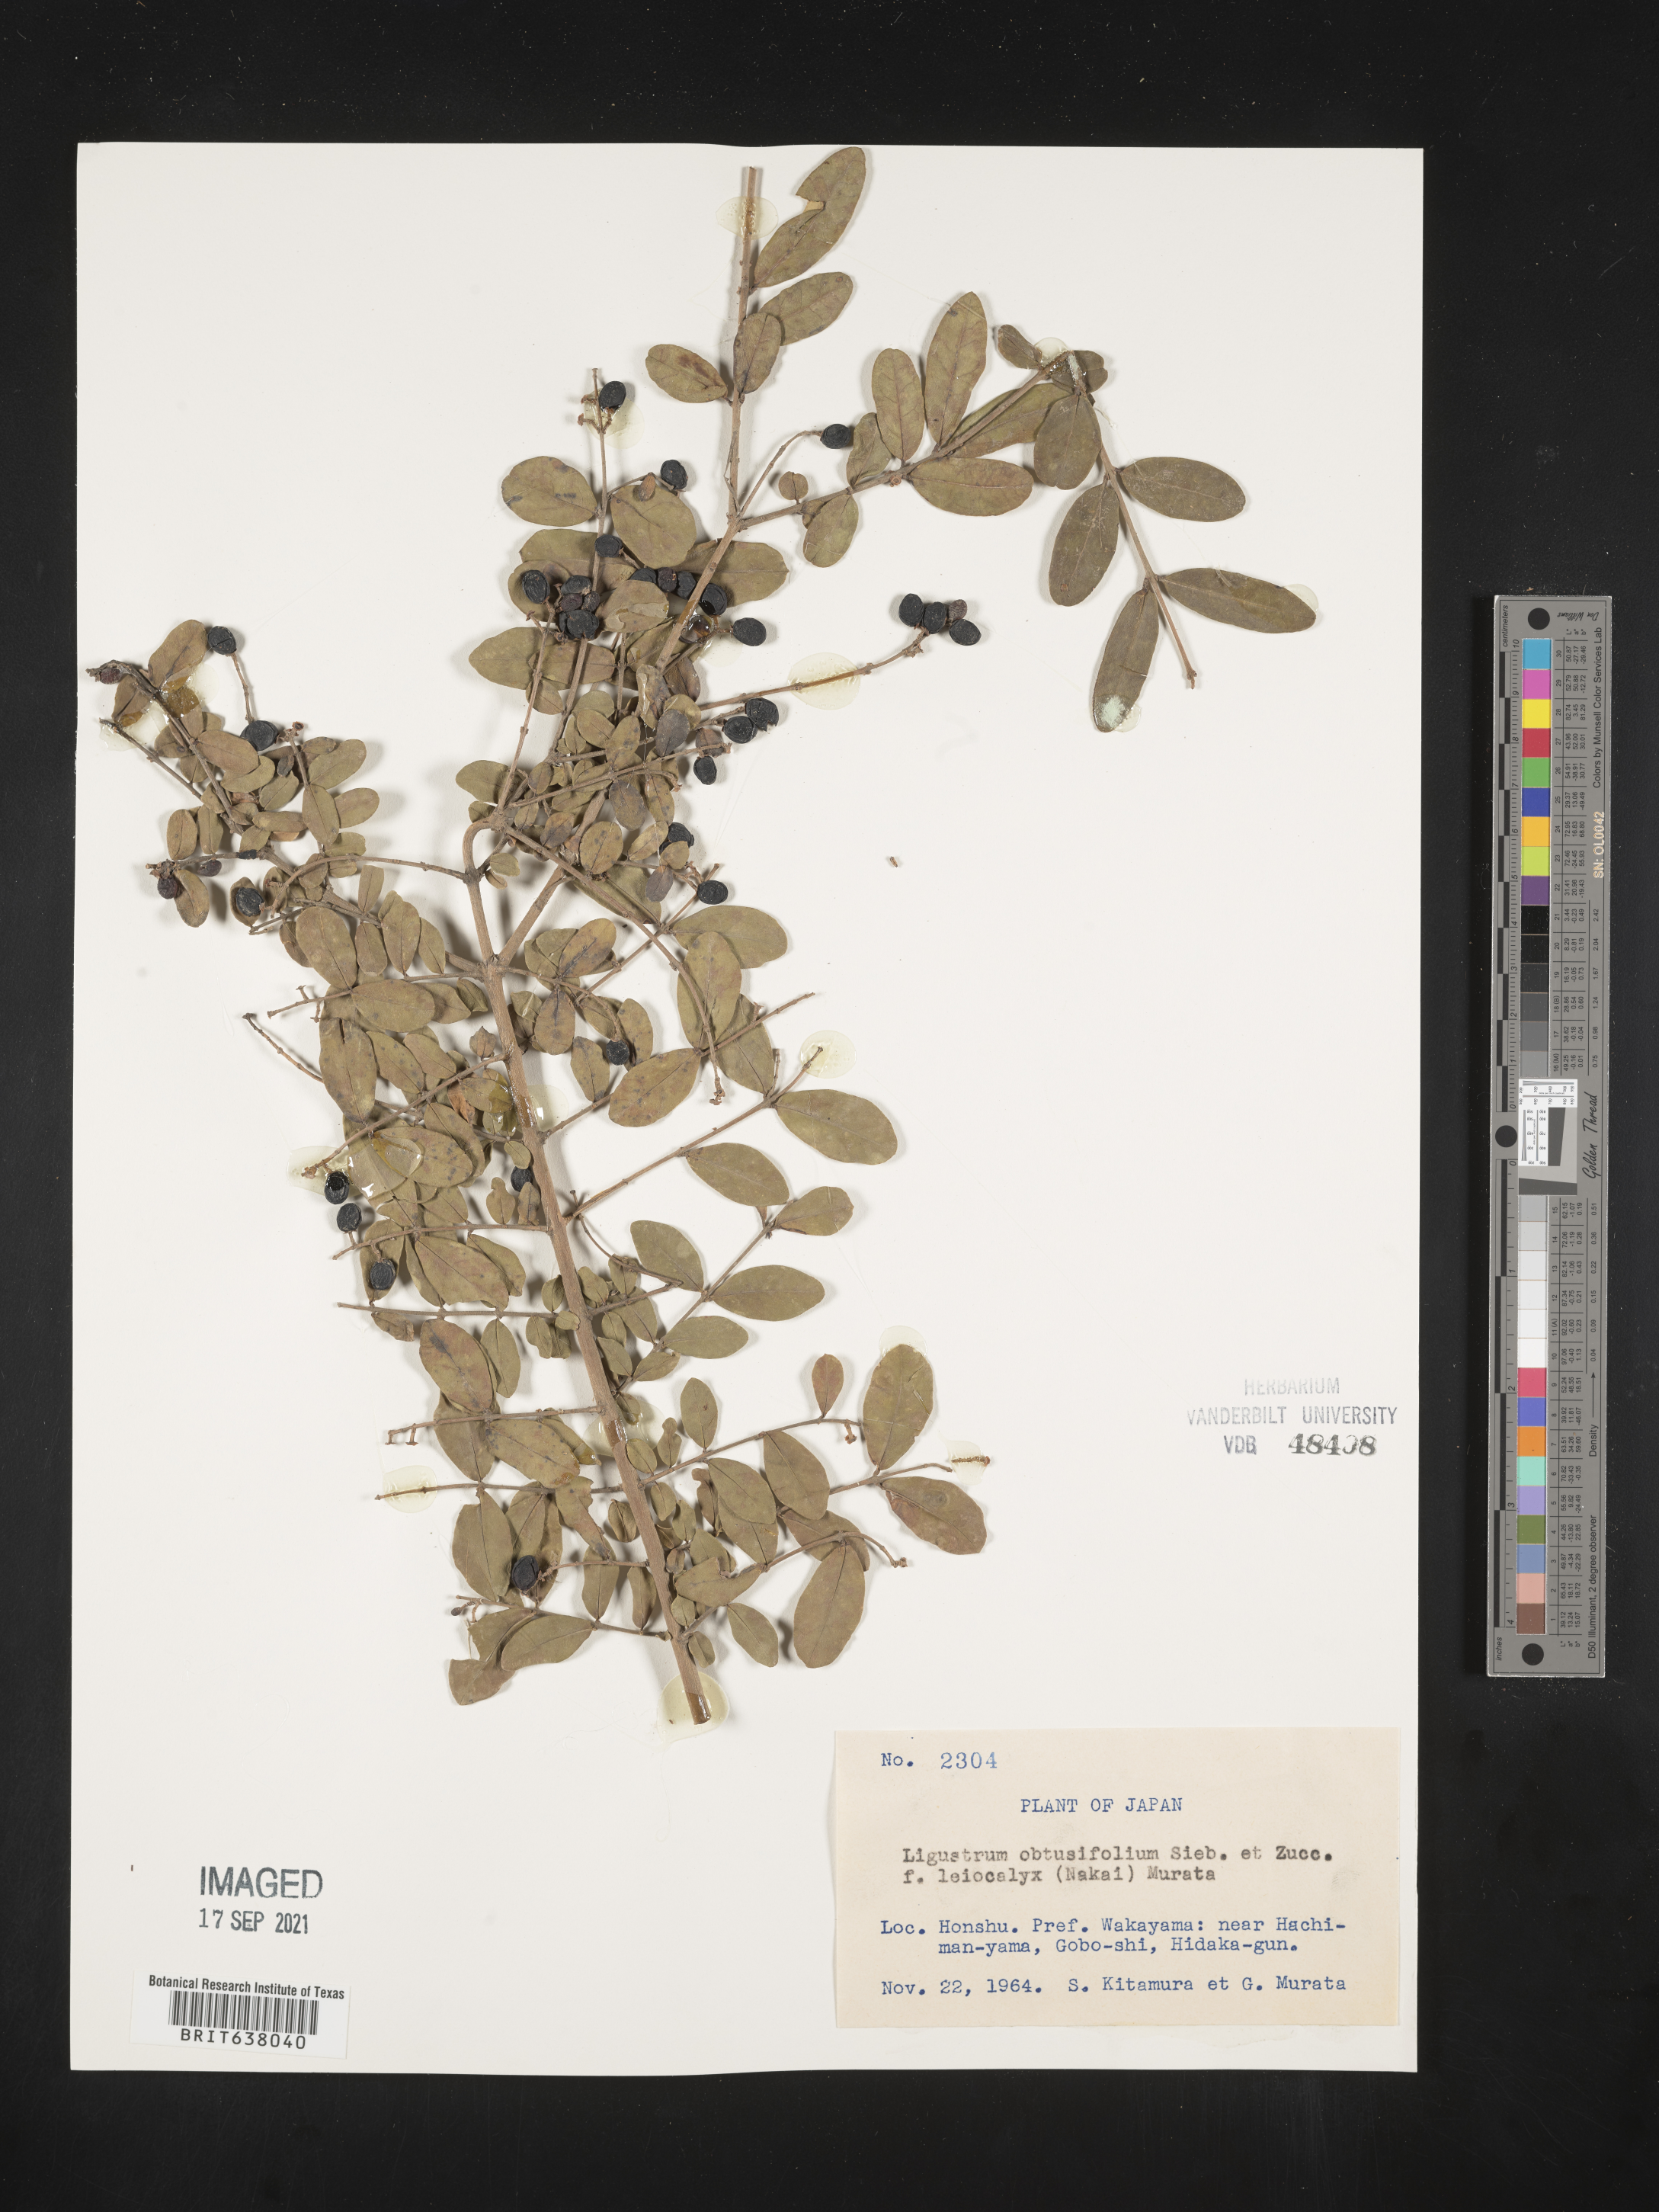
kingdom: Plantae
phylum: Tracheophyta
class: Magnoliopsida
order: Lamiales
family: Oleaceae
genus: Ligustrum
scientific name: Ligustrum
